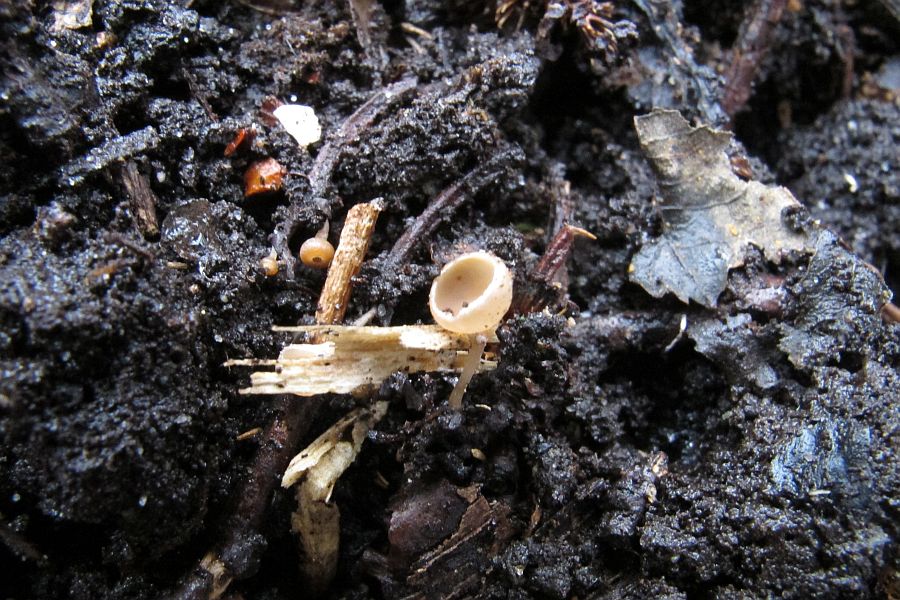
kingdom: Fungi
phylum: Ascomycota
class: Leotiomycetes
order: Helotiales
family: Sclerotiniaceae
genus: Ciboria
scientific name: Ciboria amentacea
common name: ellerakle-knoldskive
